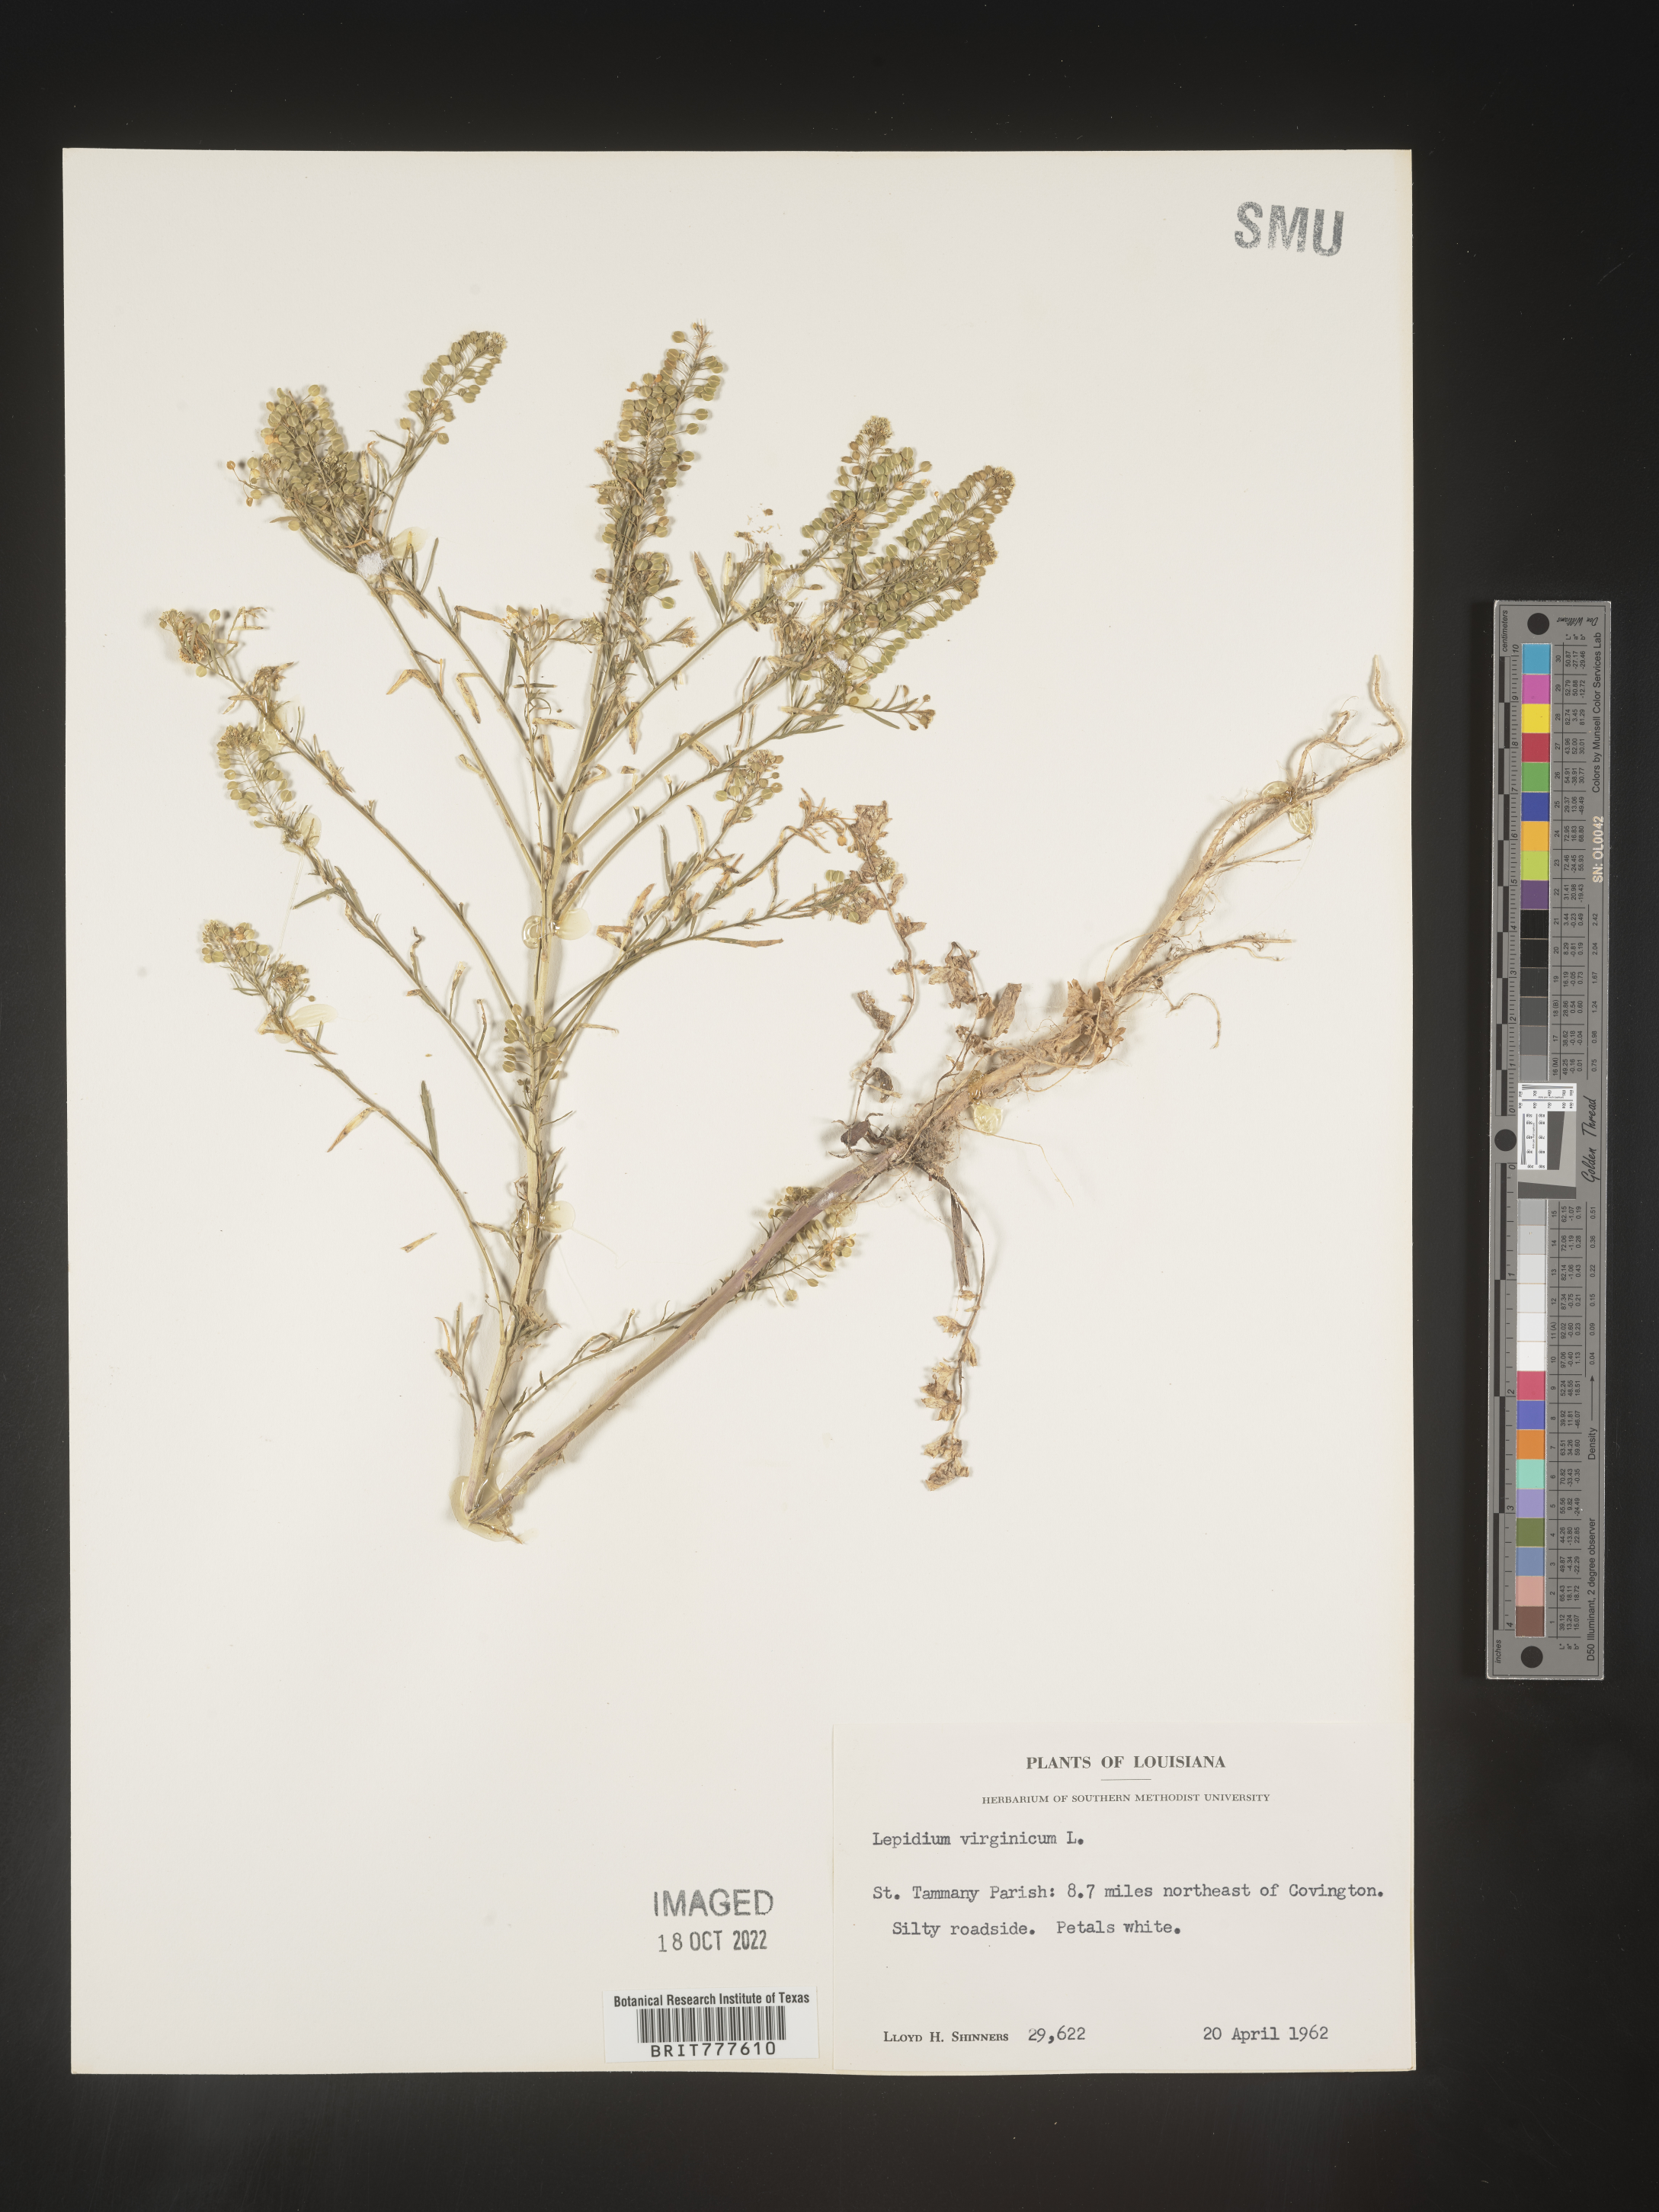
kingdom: Plantae
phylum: Tracheophyta
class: Magnoliopsida
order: Brassicales
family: Brassicaceae
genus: Lepidium
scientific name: Lepidium virginicum
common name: Least pepperwort
